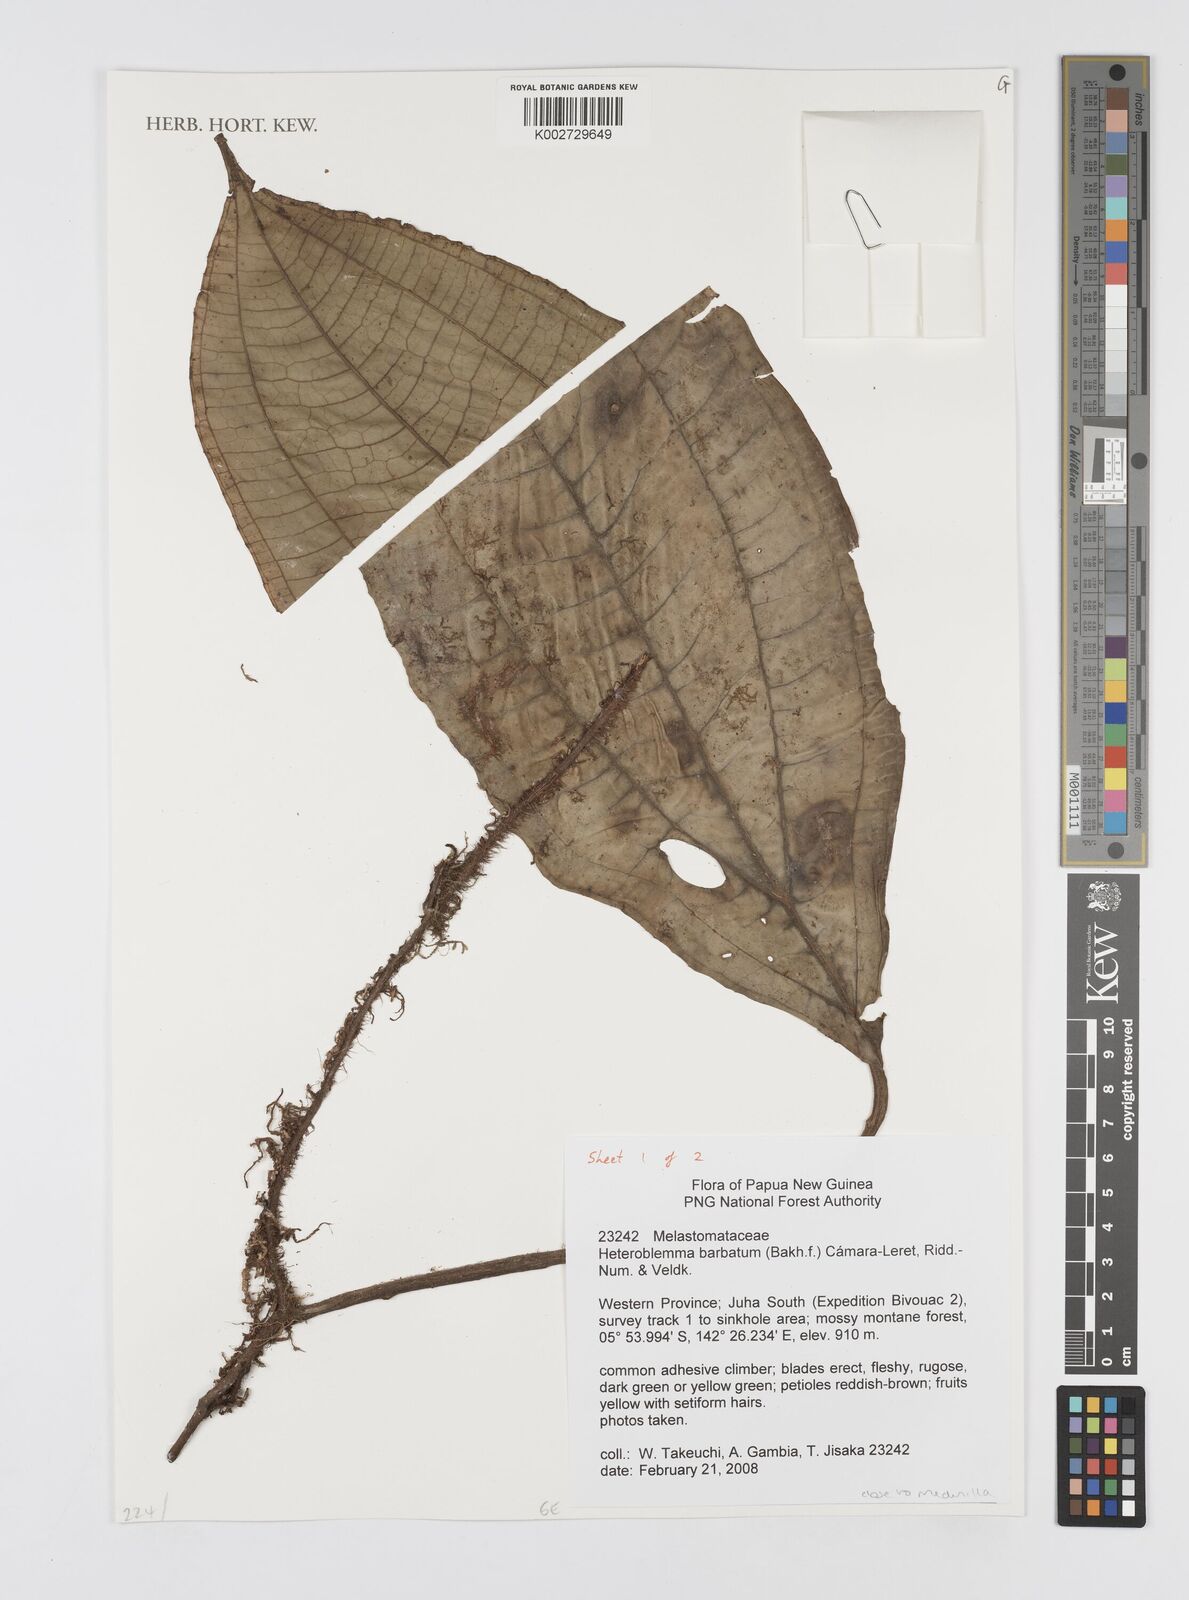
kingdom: Plantae
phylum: Tracheophyta
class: Magnoliopsida
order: Myrtales
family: Melastomataceae
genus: Heteroblemma
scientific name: Heteroblemma barbatum
